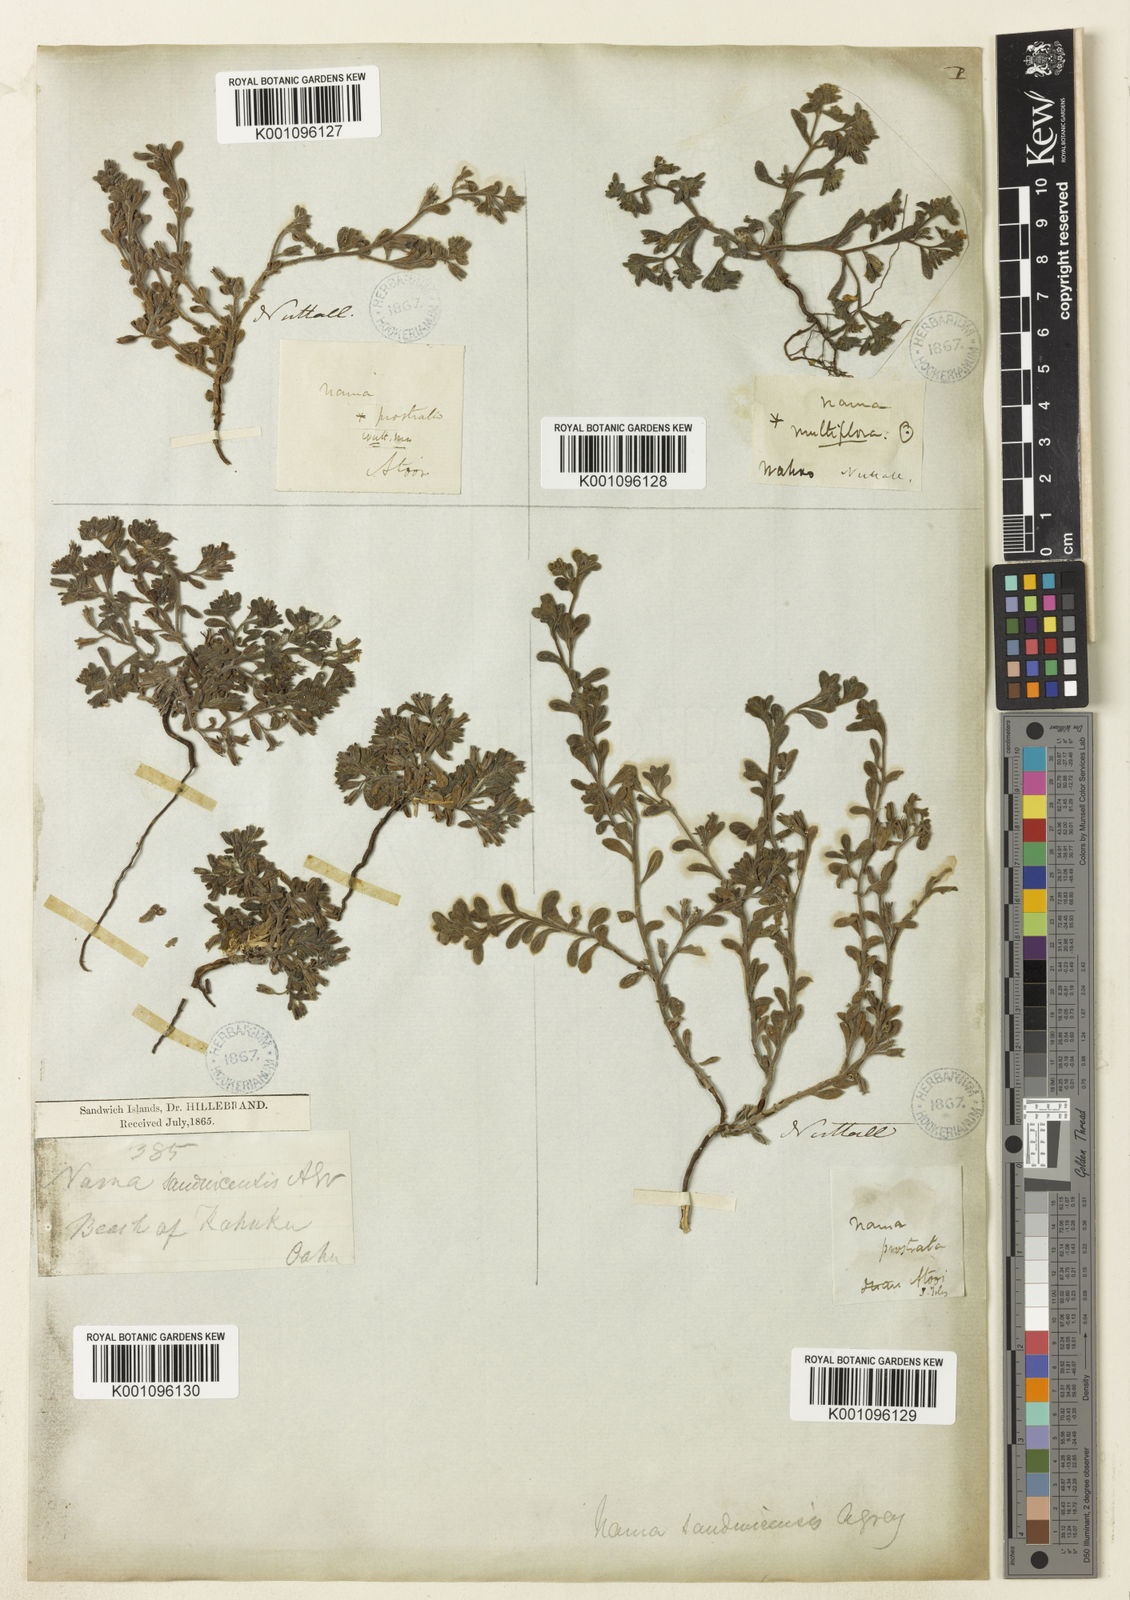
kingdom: Plantae
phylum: Tracheophyta
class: Magnoliopsida
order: Boraginales
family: Namaceae
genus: Nama
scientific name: Nama sandwicense
